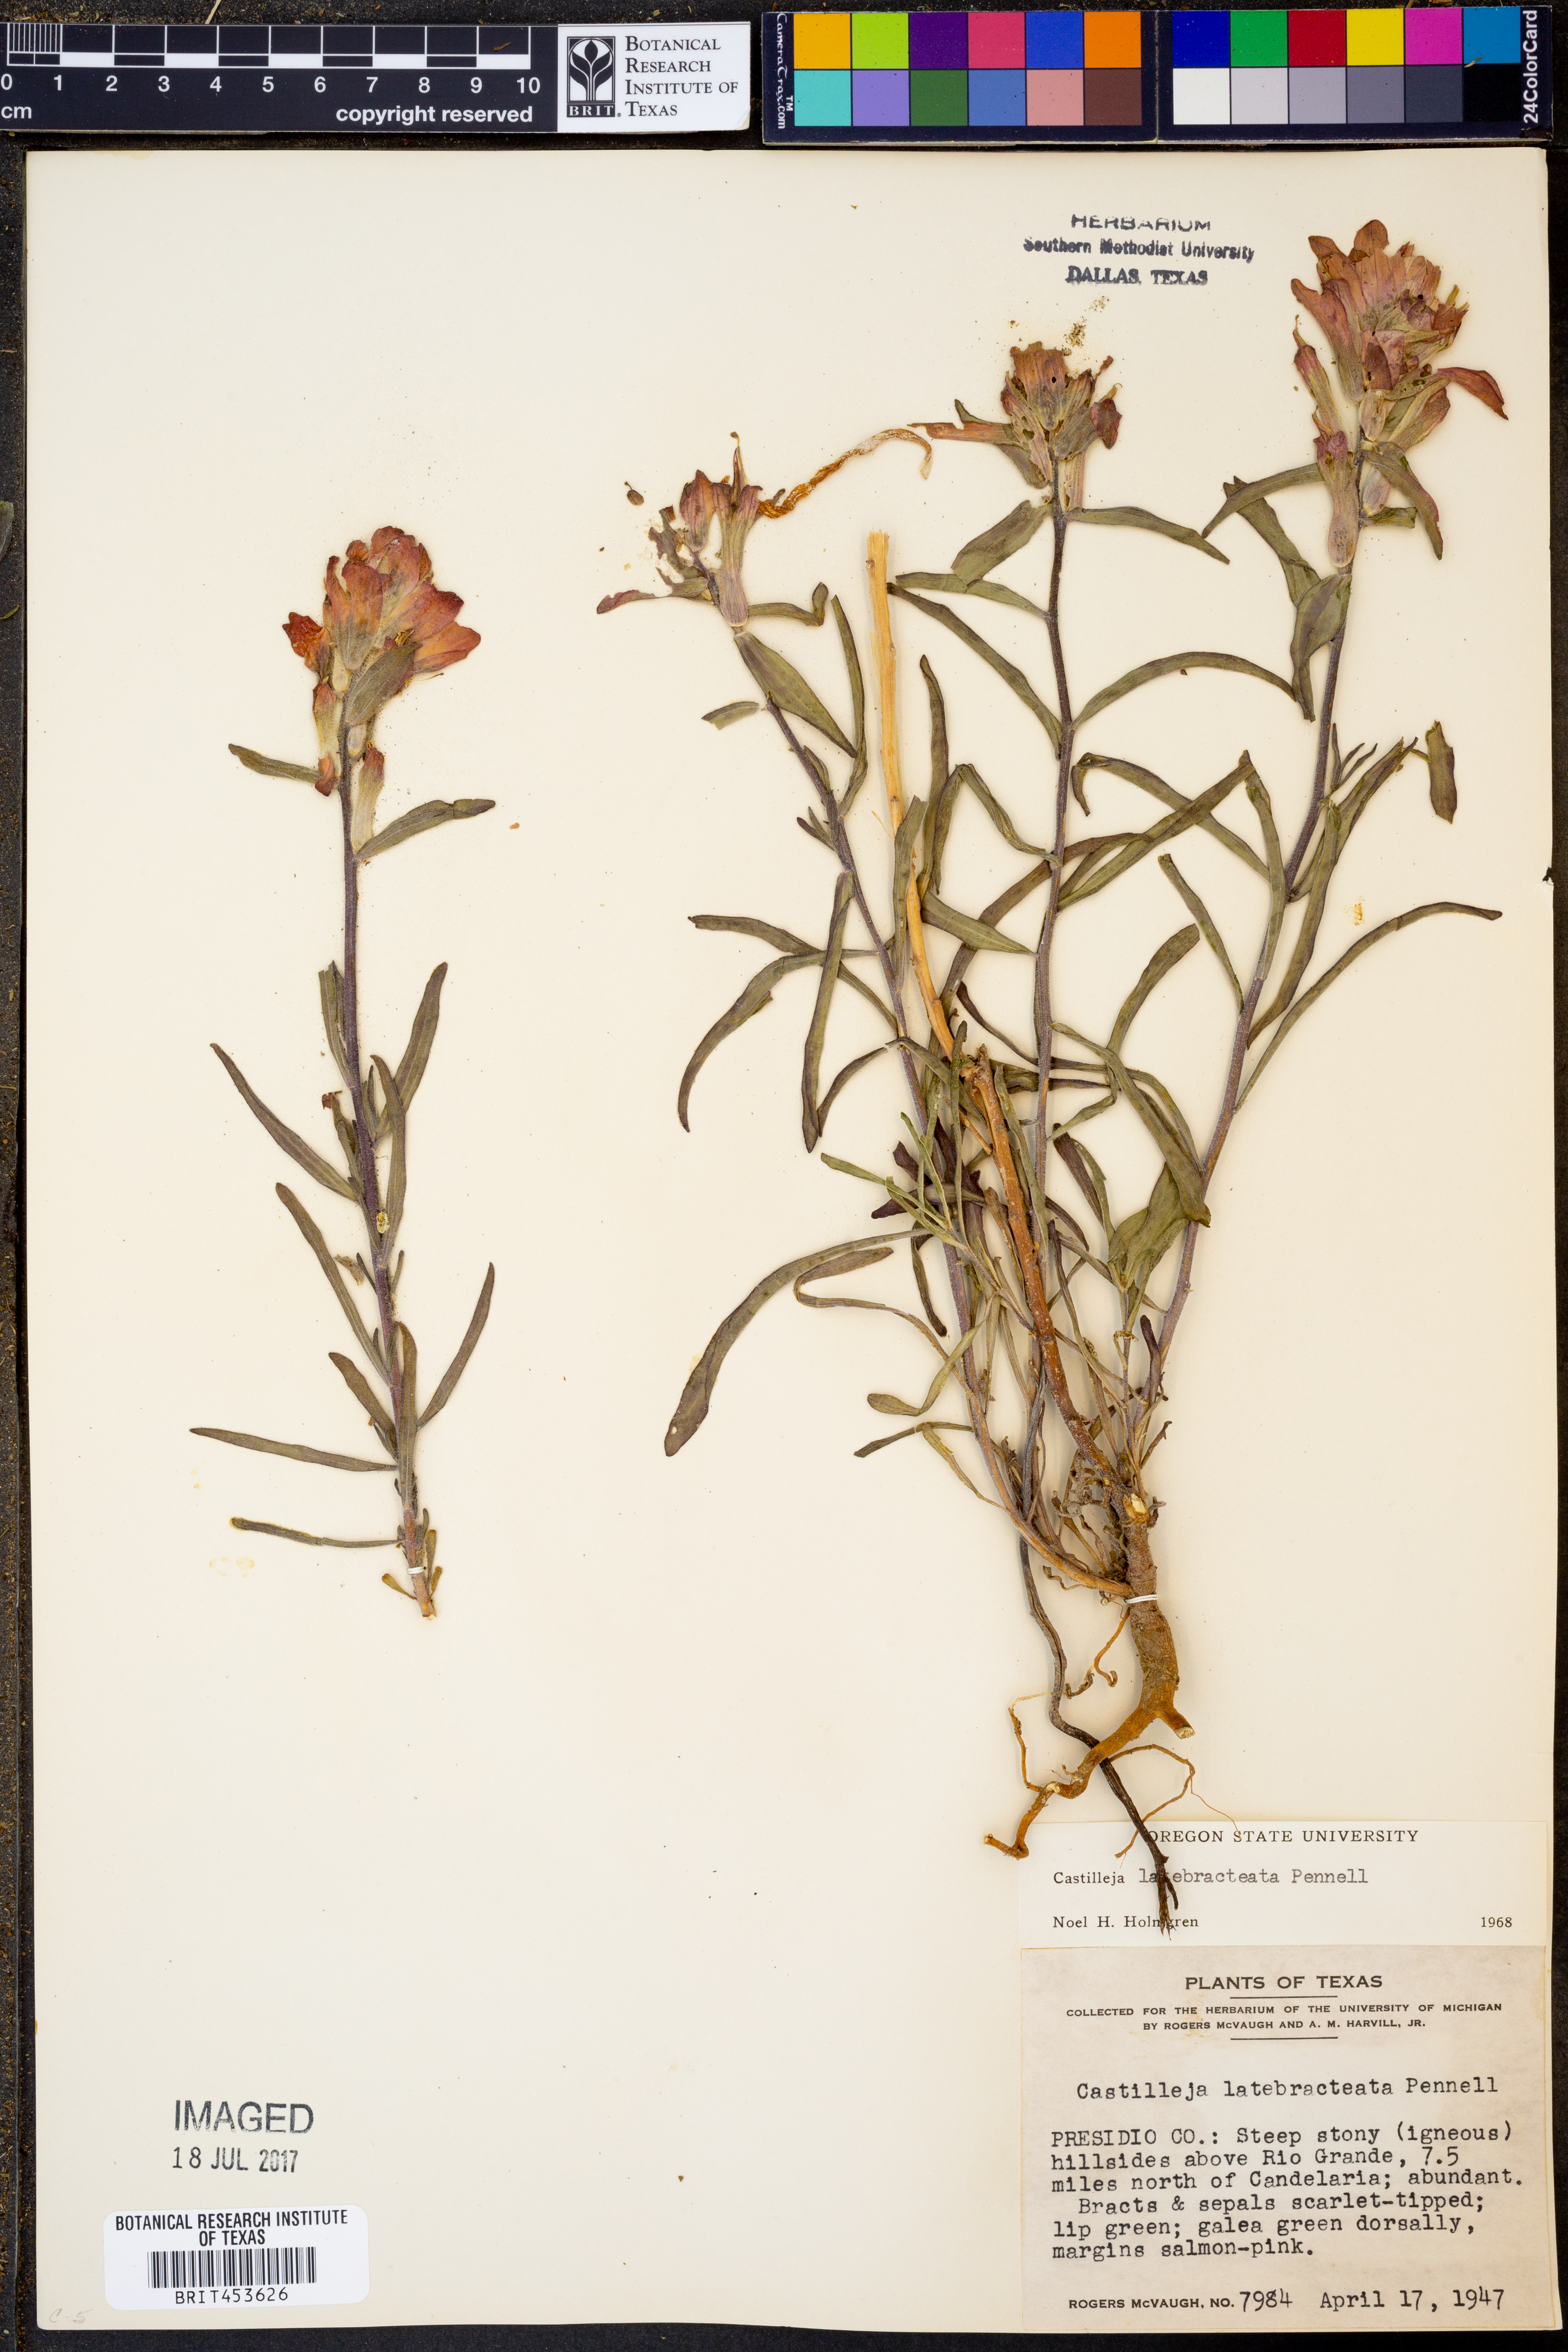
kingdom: Plantae
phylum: Tracheophyta
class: Magnoliopsida
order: Lamiales
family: Orobanchaceae
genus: Castilleja
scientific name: Castilleja rigida
